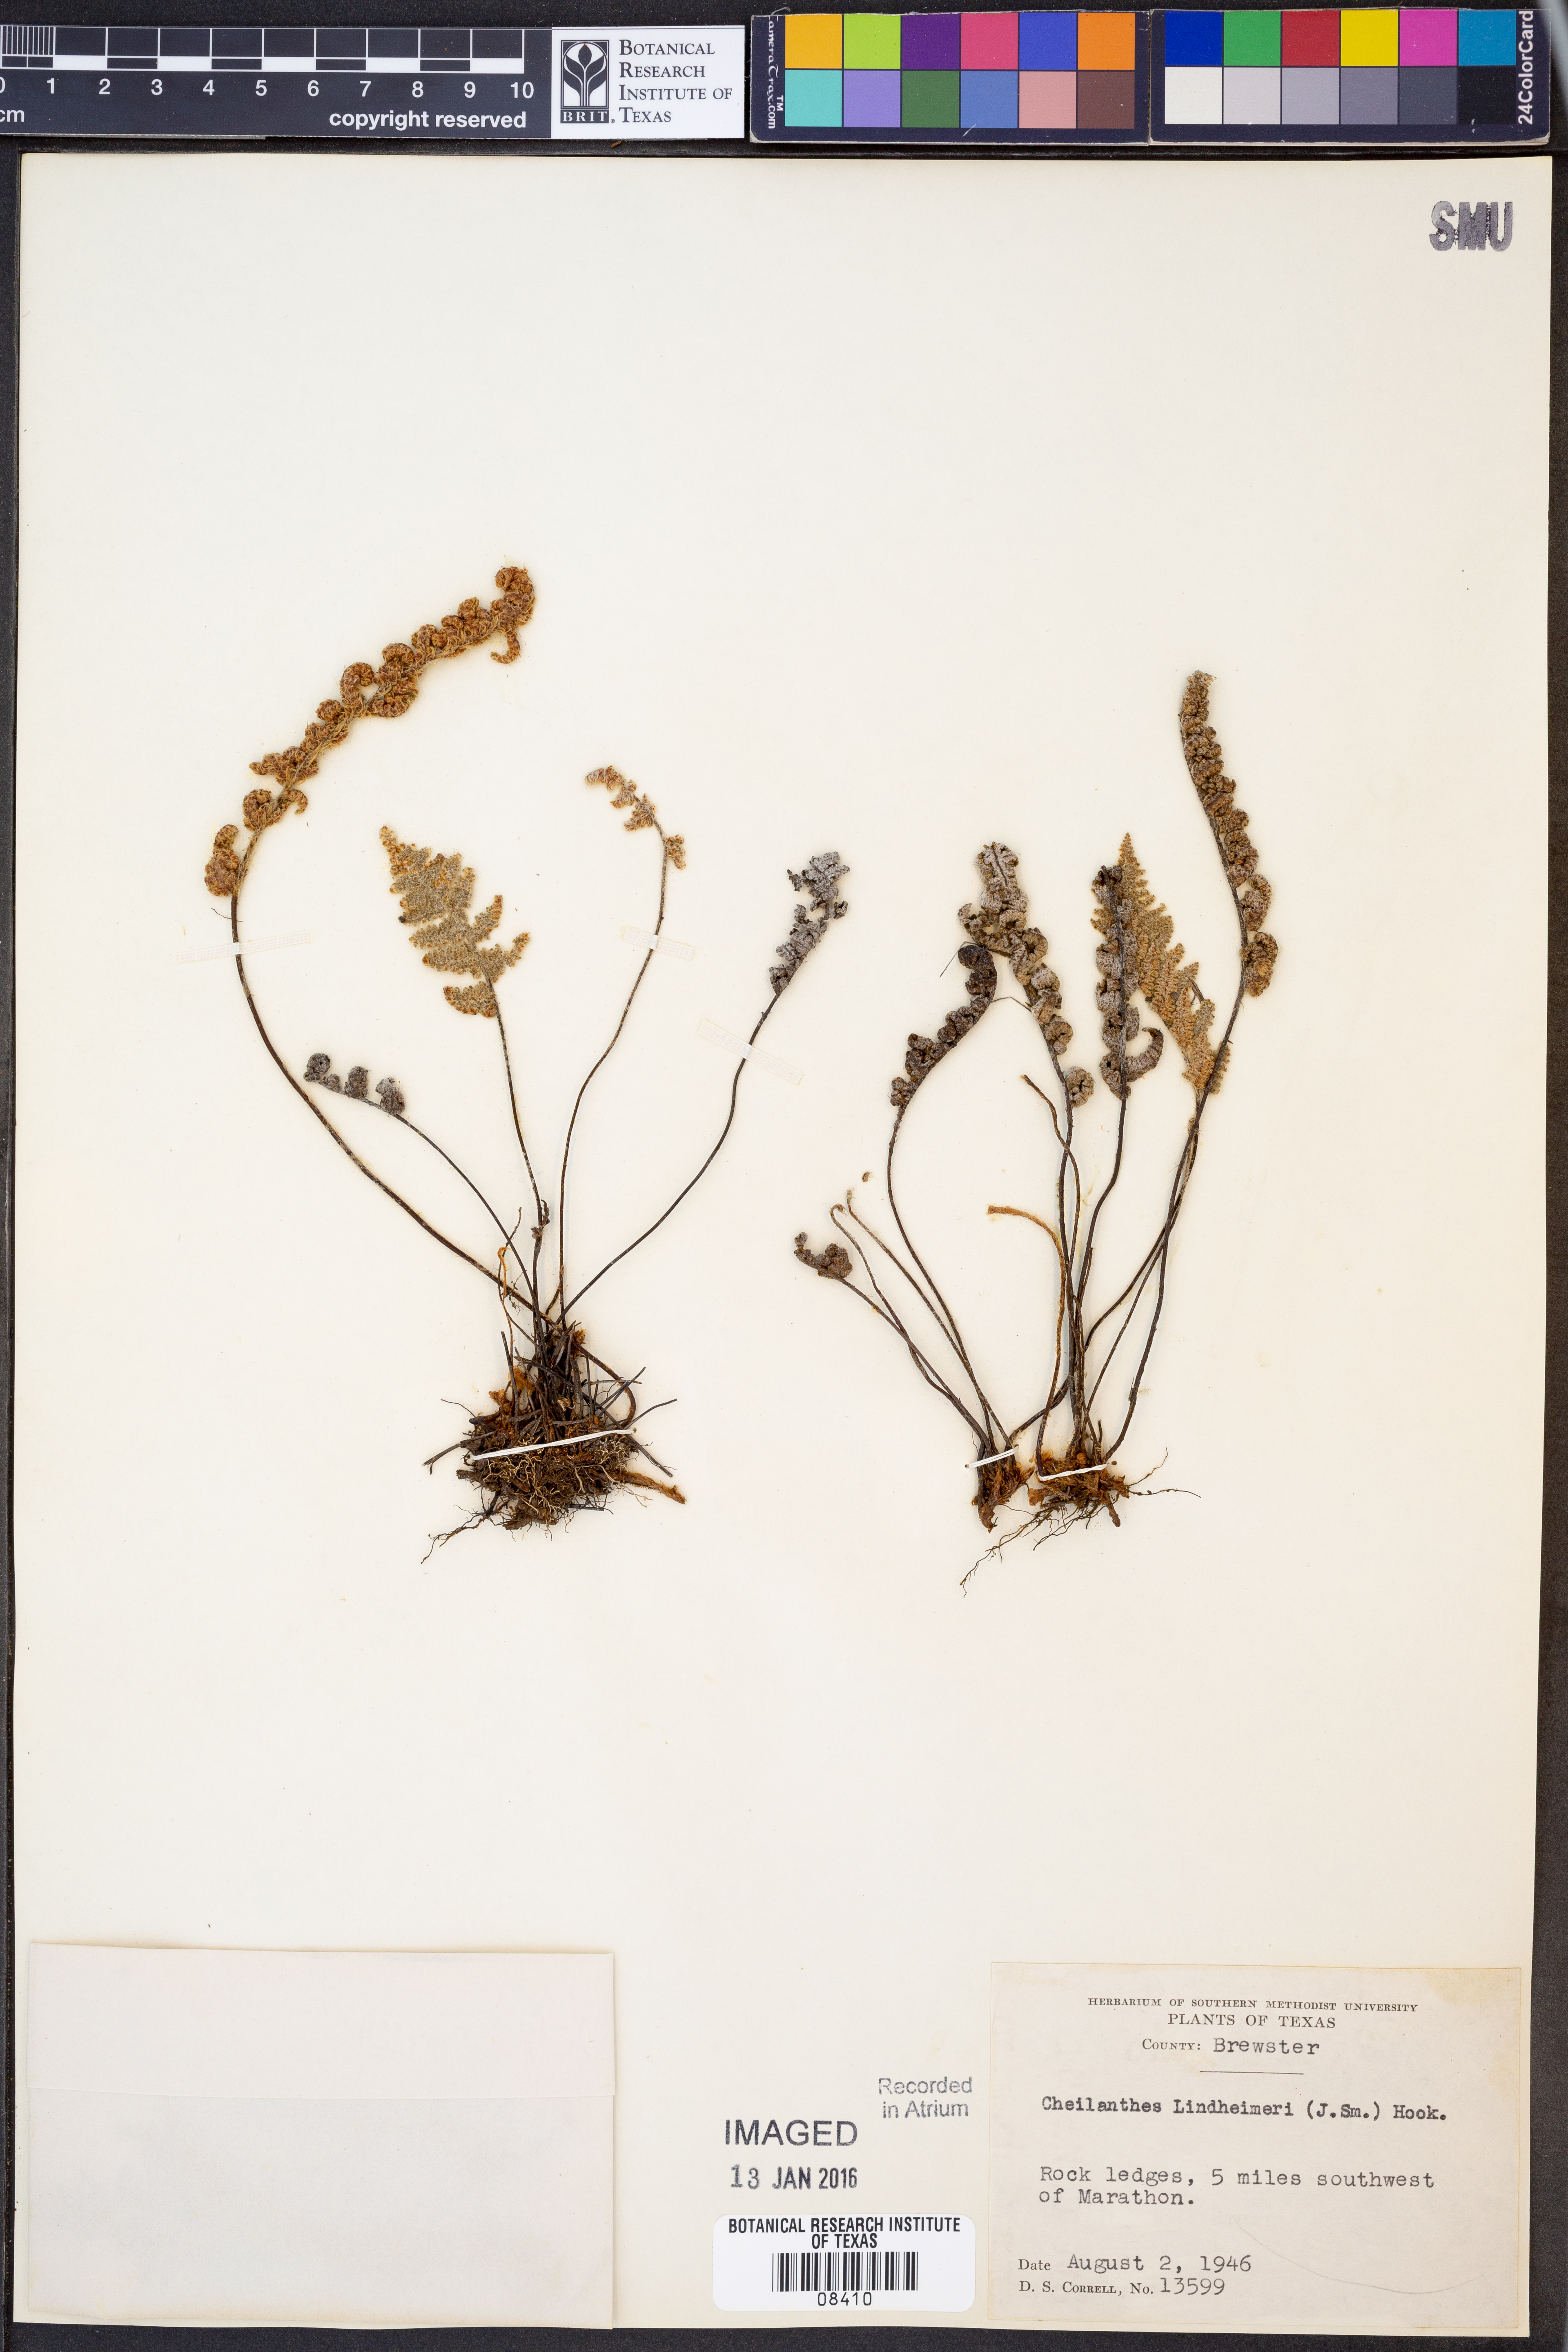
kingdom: Plantae
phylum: Tracheophyta
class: Polypodiopsida
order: Polypodiales
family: Pteridaceae
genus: Myriopteris
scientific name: Myriopteris lindheimeri
